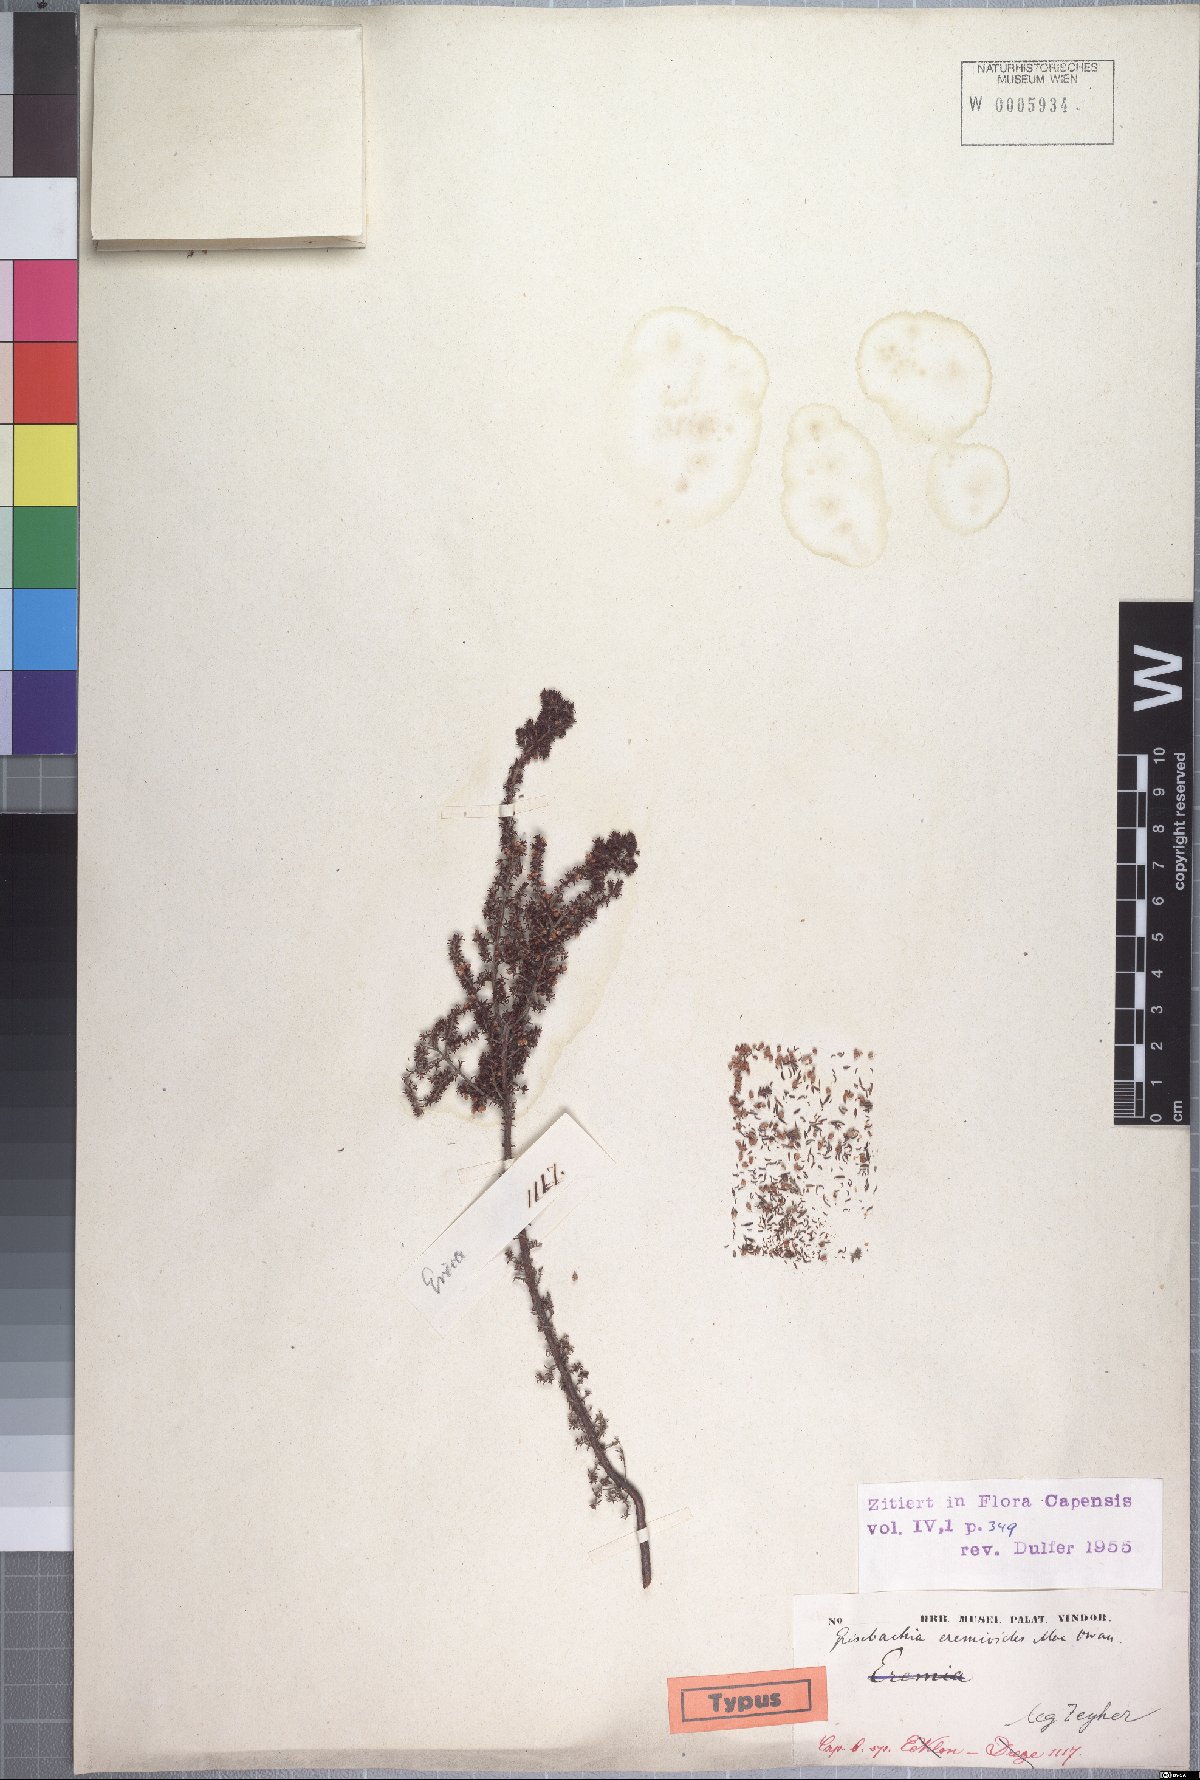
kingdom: Plantae
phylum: Tracheophyta
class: Magnoliopsida
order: Ericales
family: Ericaceae
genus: Erica
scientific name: Erica eremioides
